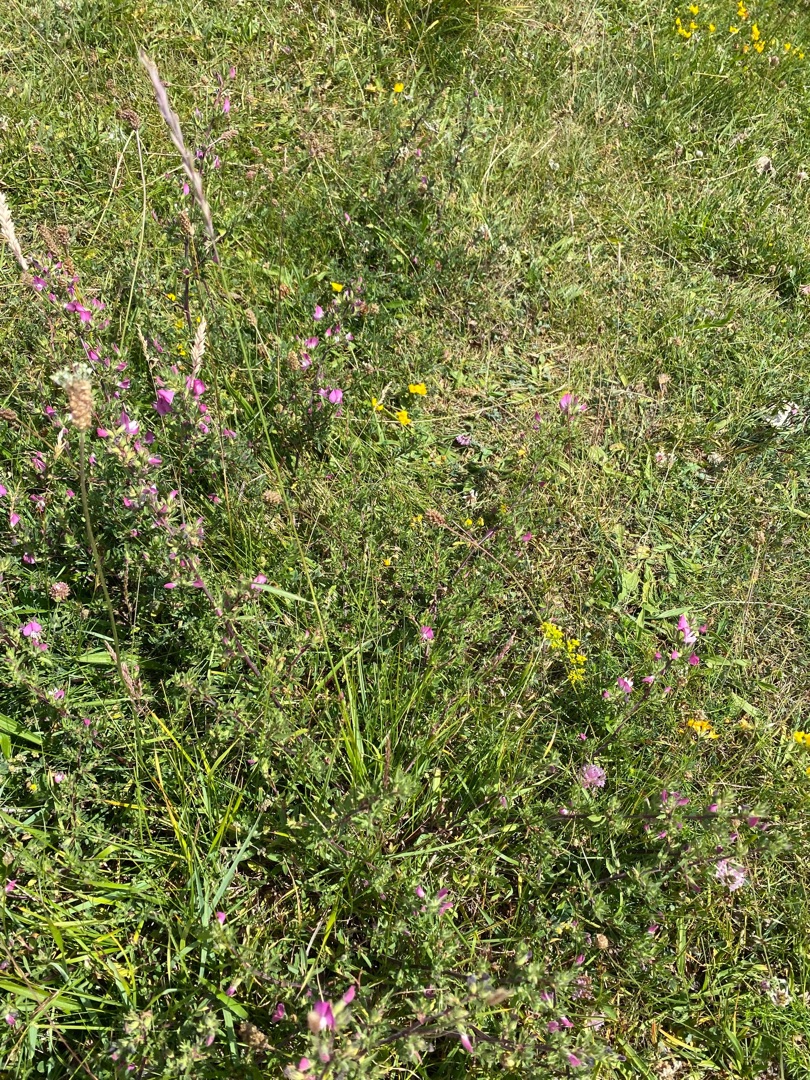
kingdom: Plantae
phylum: Tracheophyta
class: Liliopsida
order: Poales
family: Poaceae
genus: Elymus
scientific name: Elymus repens
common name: Almindelig kvik
